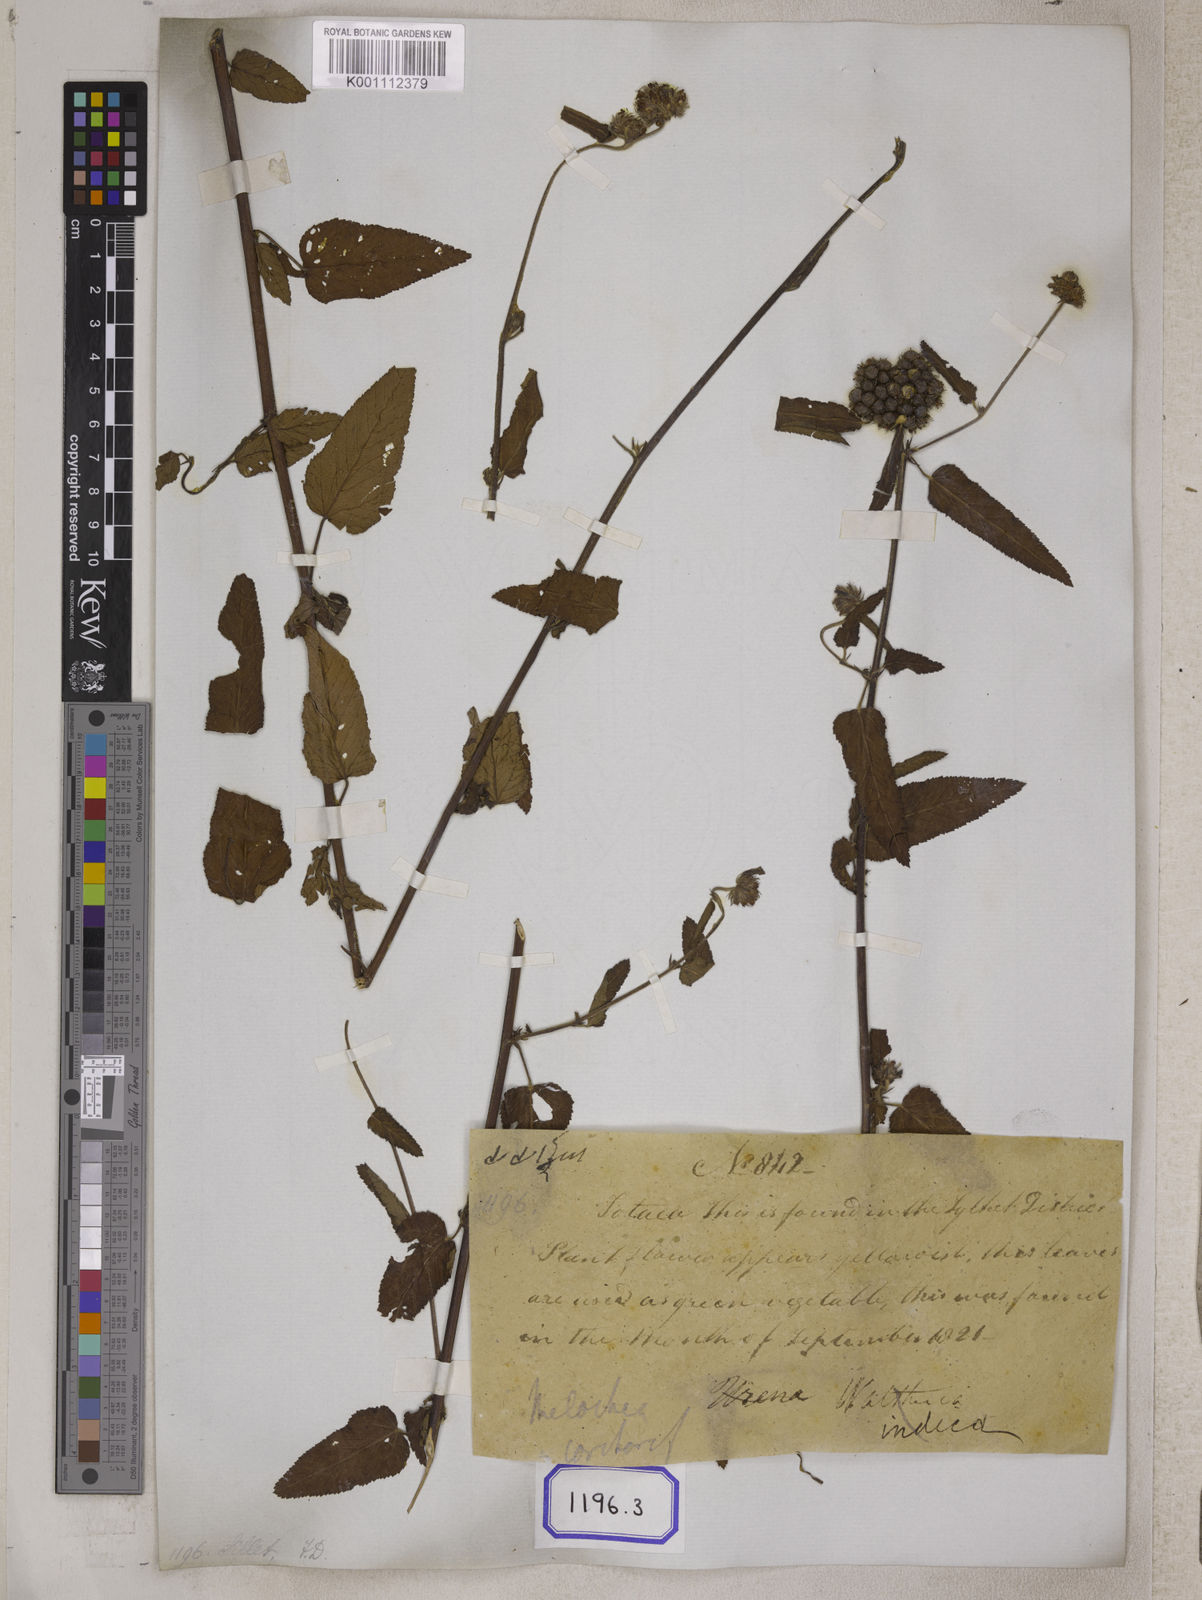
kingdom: Plantae
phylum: Tracheophyta
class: Magnoliopsida
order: Malvales
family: Malvaceae
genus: Melochia
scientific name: Melochia corchorifolia
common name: Chocolateweed
